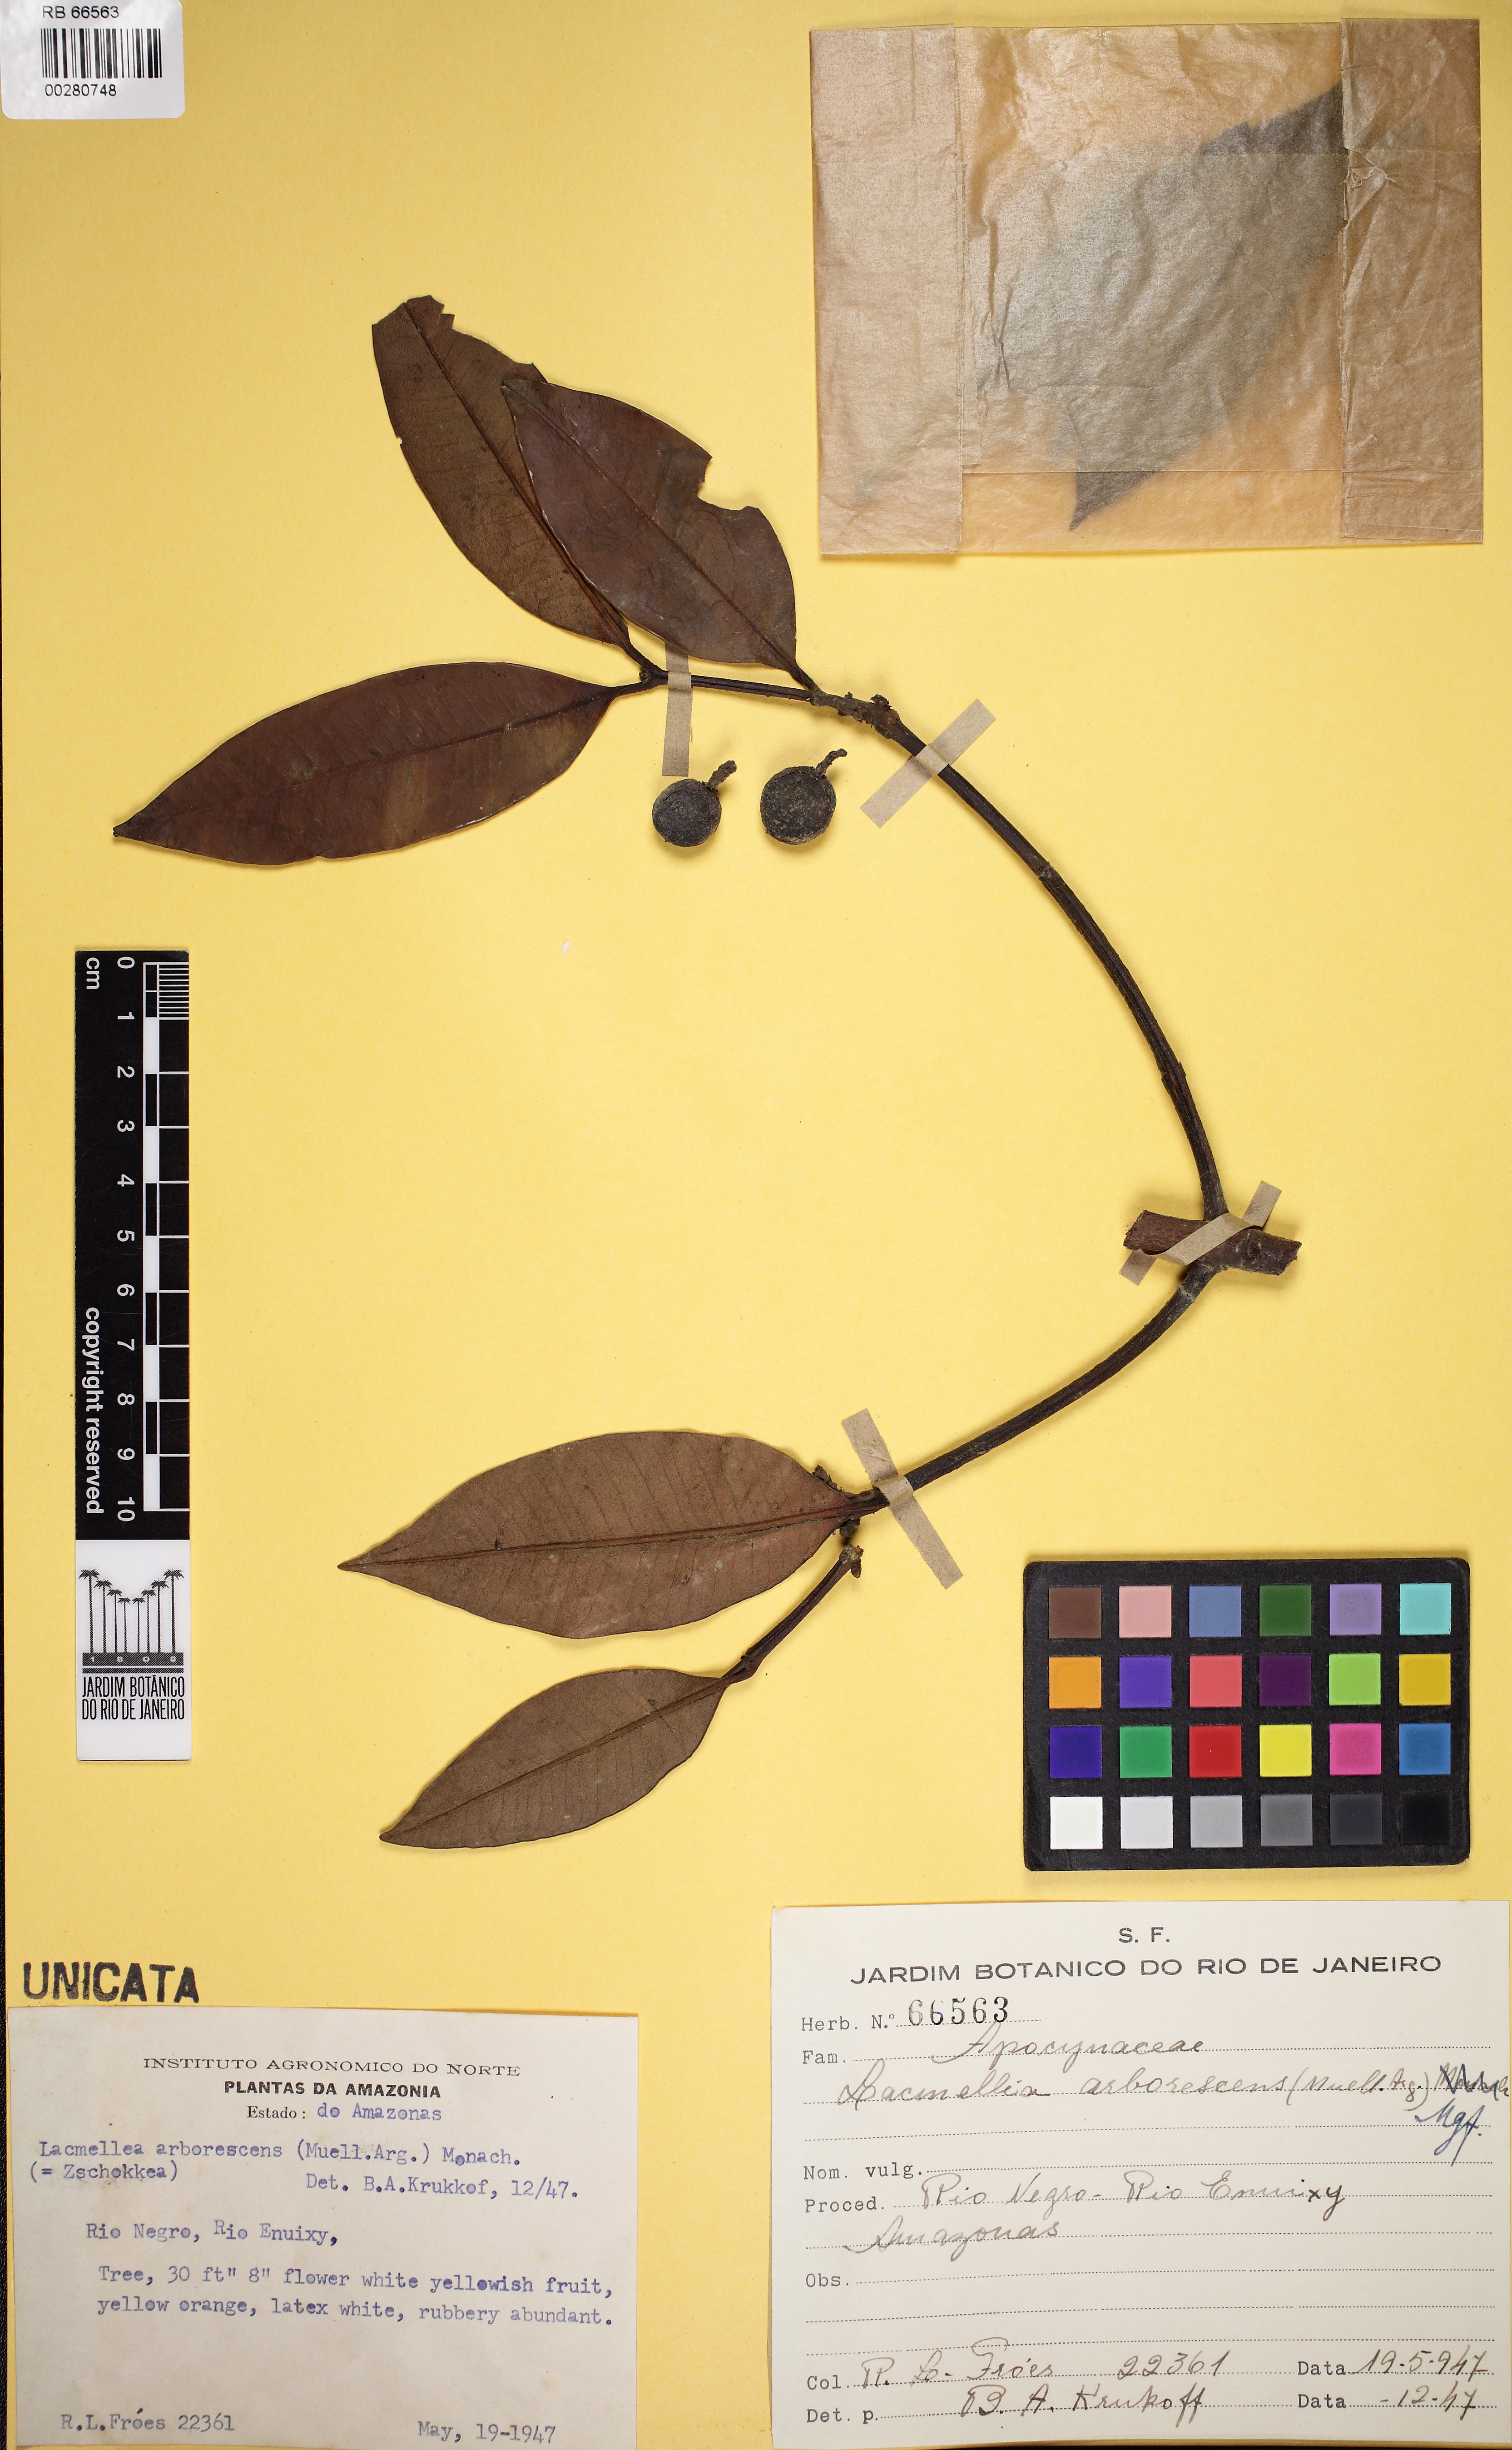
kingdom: Plantae
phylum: Tracheophyta
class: Magnoliopsida
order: Gentianales
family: Apocynaceae
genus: Lacmellea
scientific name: Lacmellea arborescens
